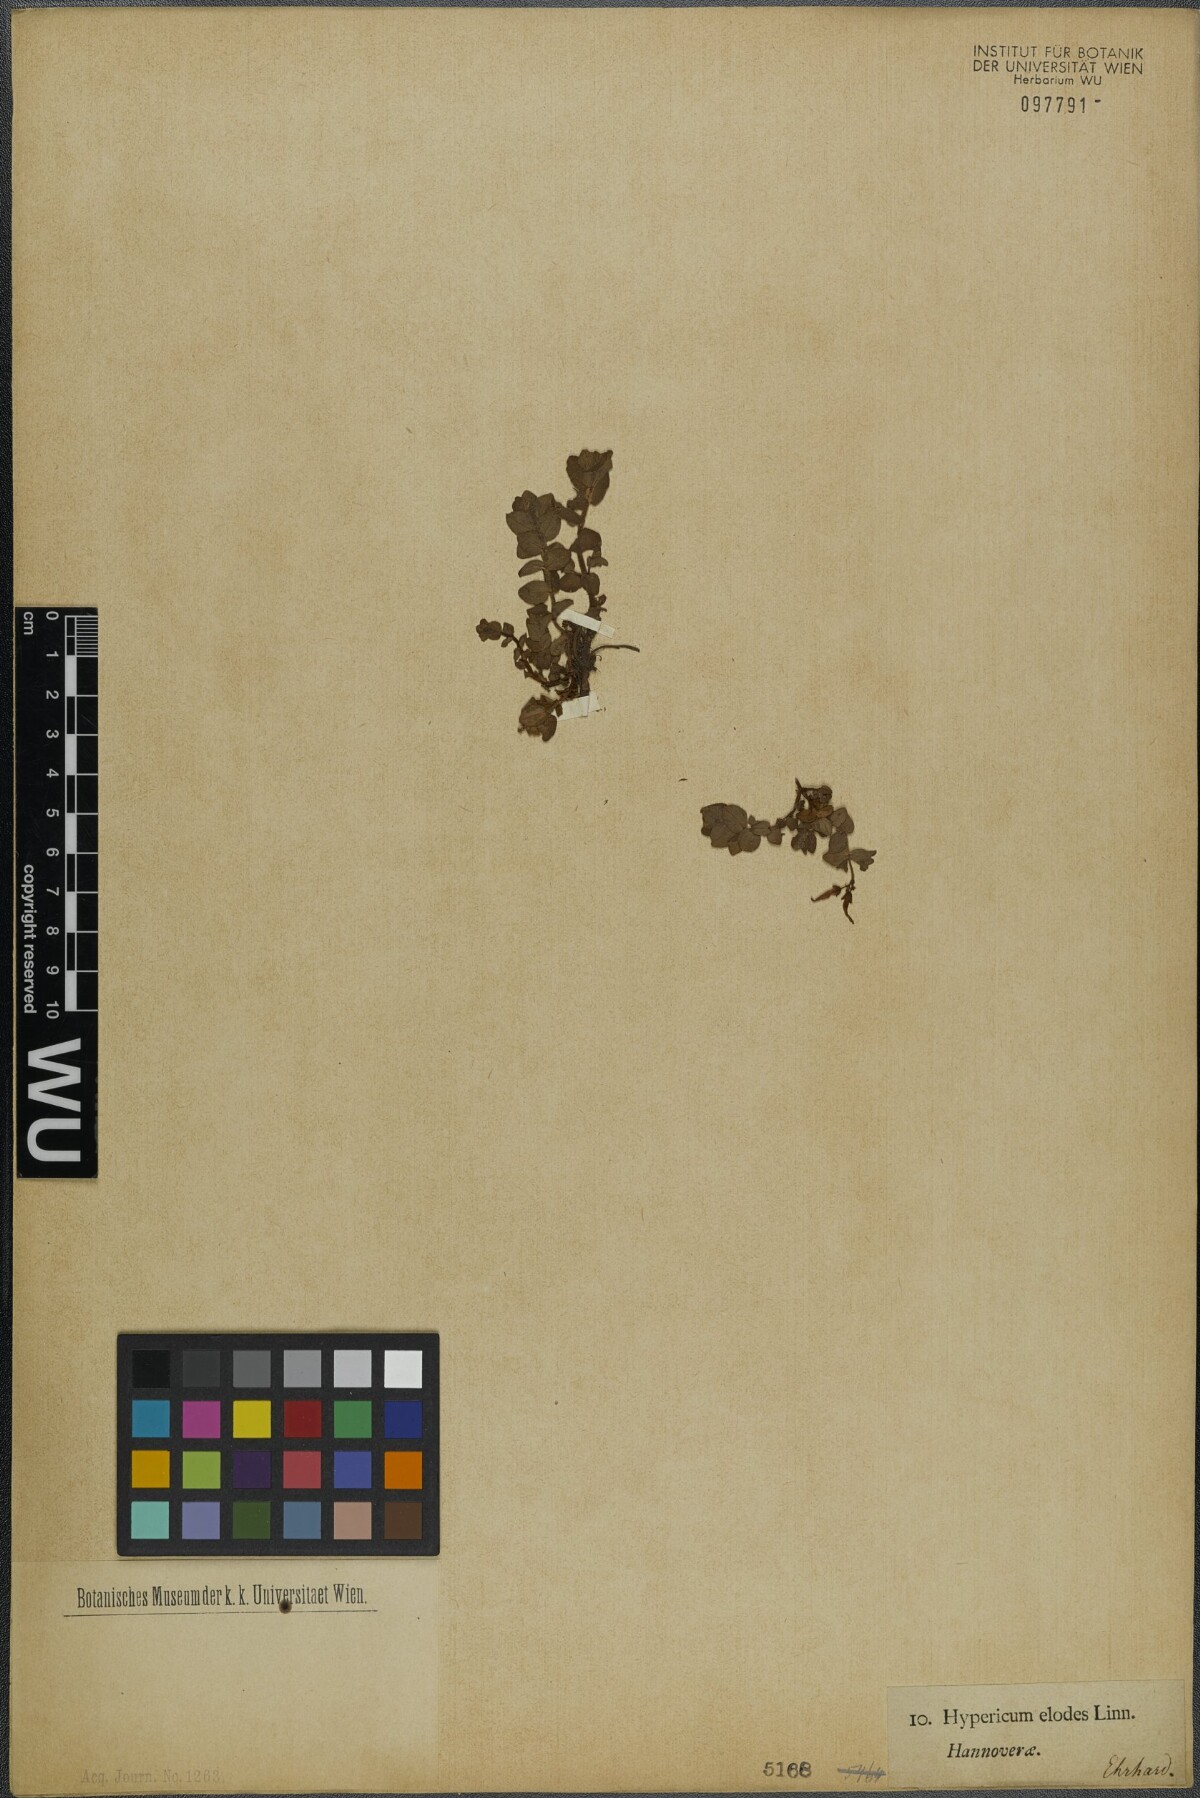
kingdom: Plantae
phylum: Tracheophyta
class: Magnoliopsida
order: Malpighiales
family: Hypericaceae
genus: Hypericum
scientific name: Hypericum elodes
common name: Marsh st. john's-wort
